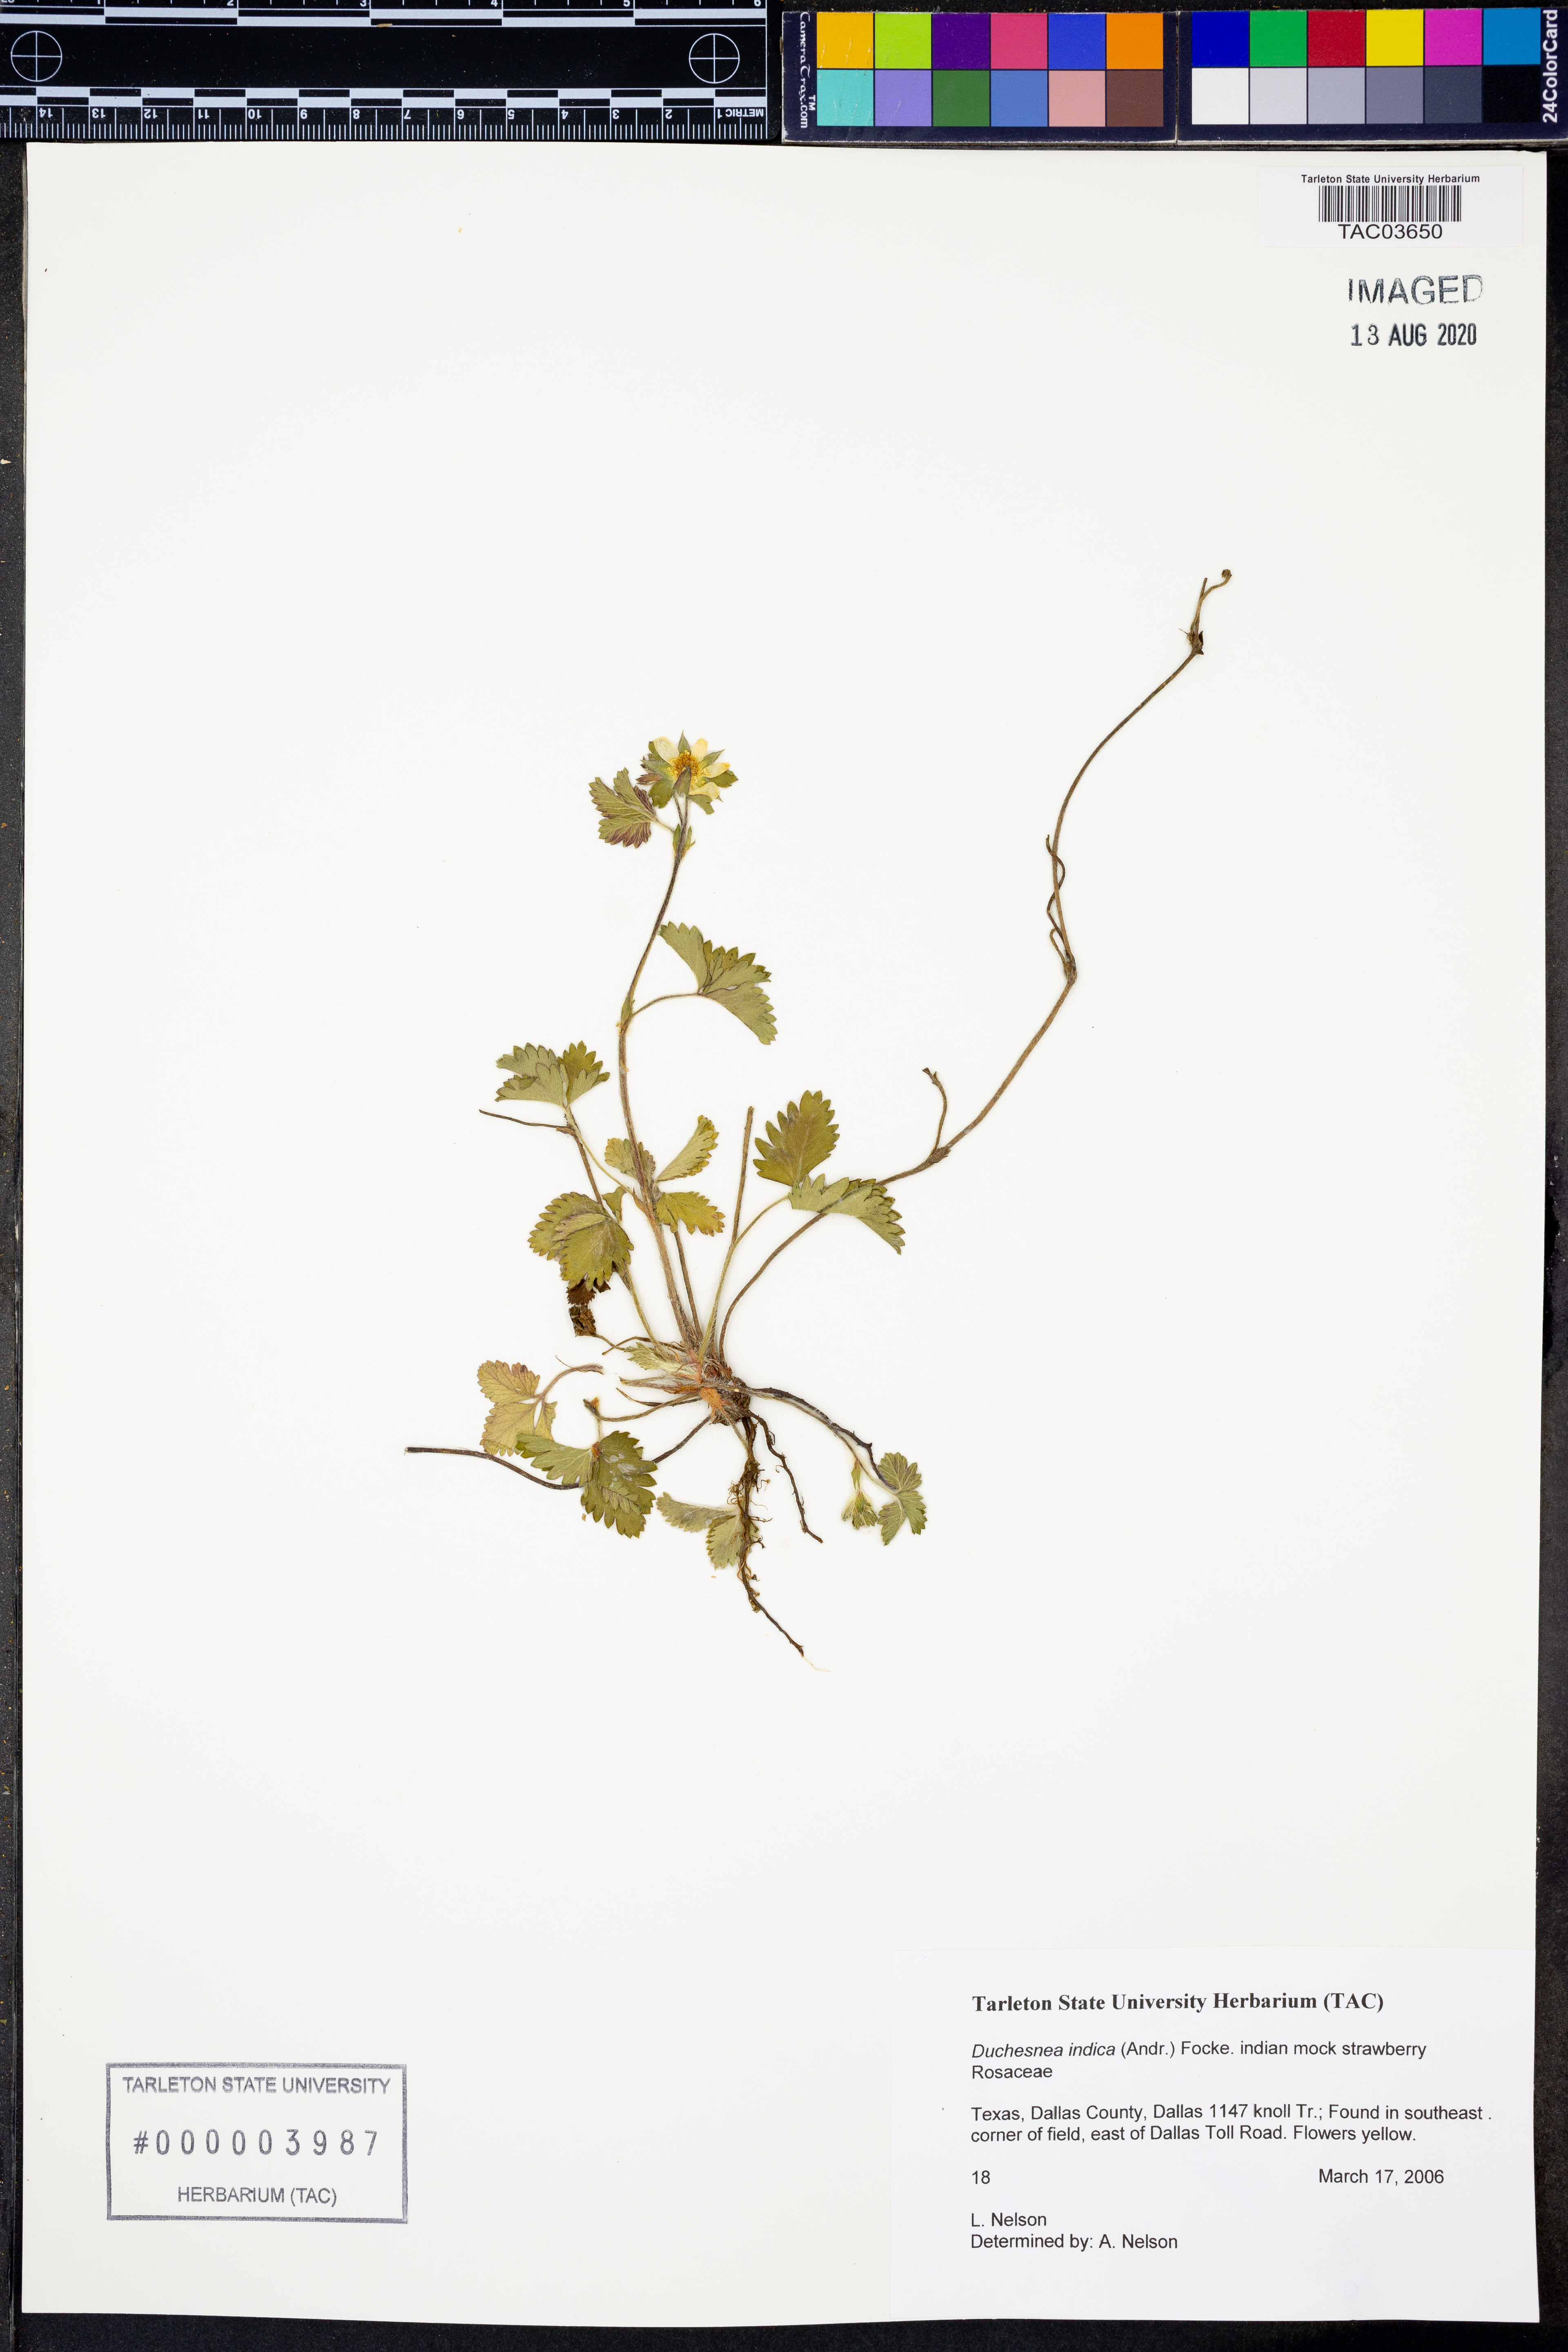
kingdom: Plantae
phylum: Tracheophyta
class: Magnoliopsida
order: Rosales
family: Rosaceae
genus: Potentilla
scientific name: Potentilla indica
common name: Yellow-flowered strawberry
